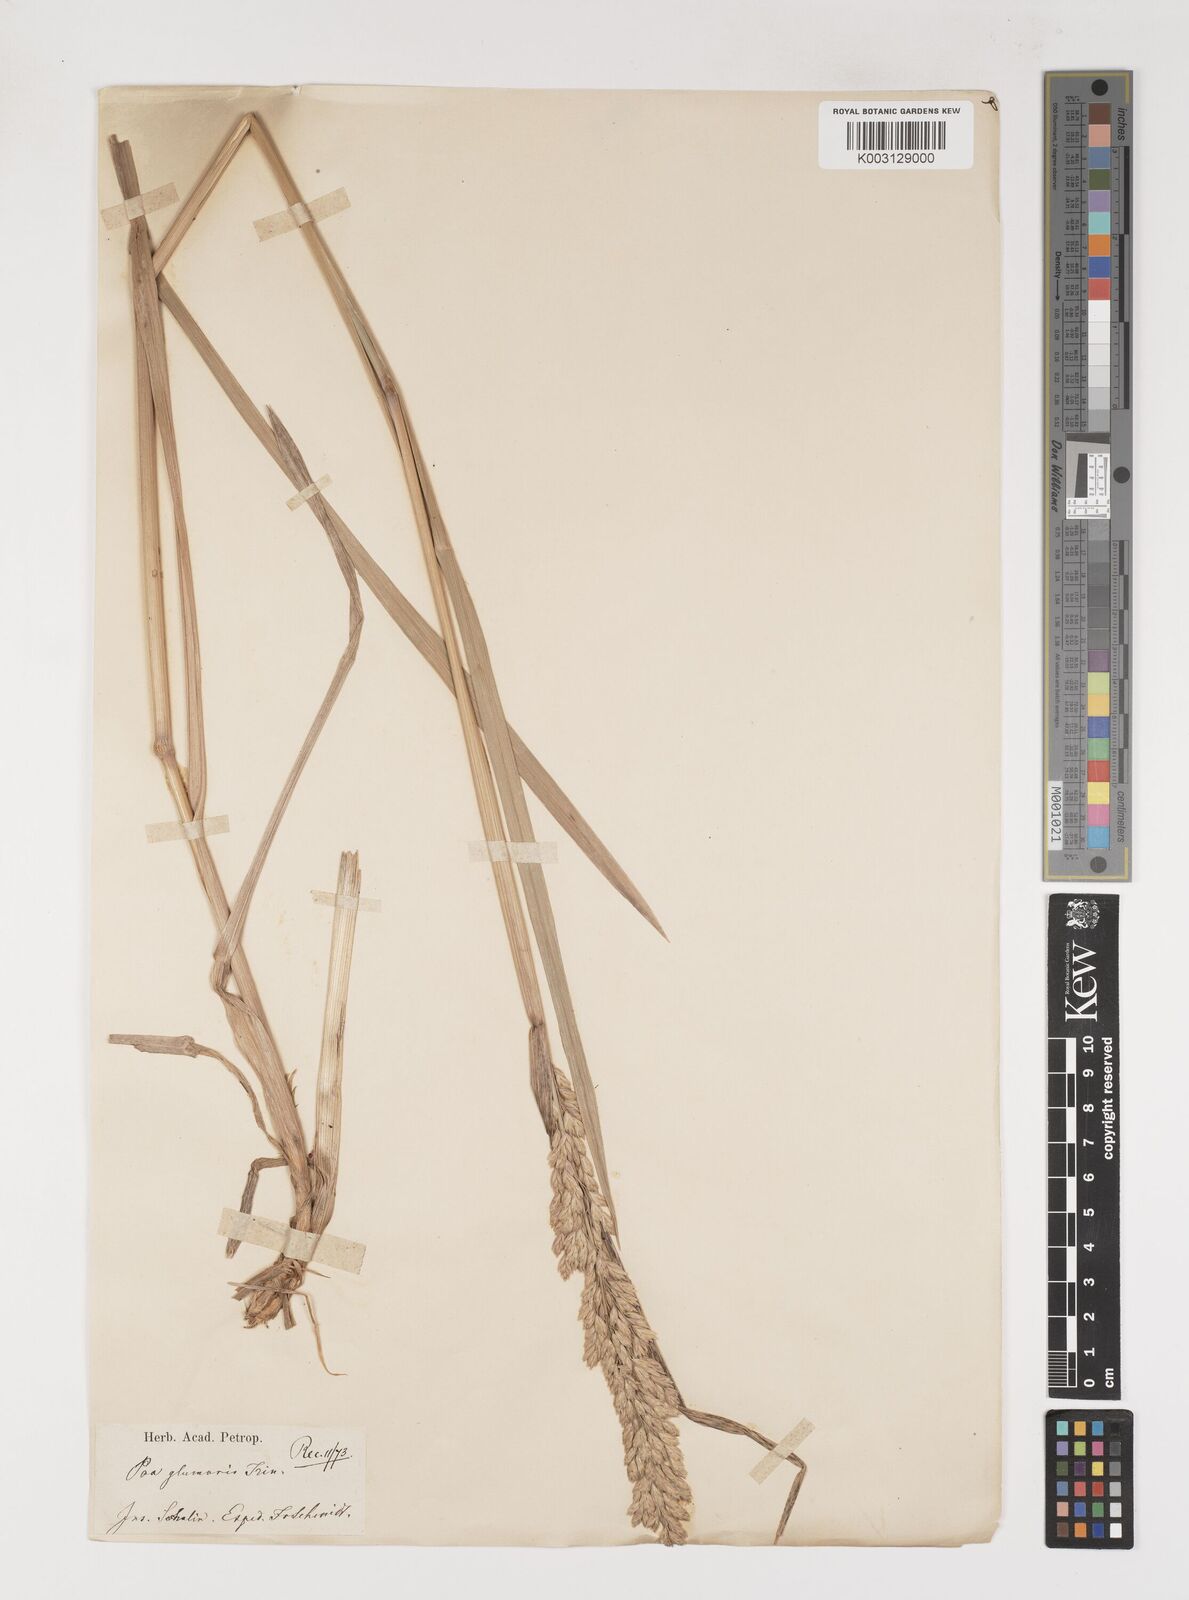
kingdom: Plantae
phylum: Tracheophyta
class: Liliopsida
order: Poales
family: Poaceae
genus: Arctopoa
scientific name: Arctopoa eminens
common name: Eminent bluegrass
